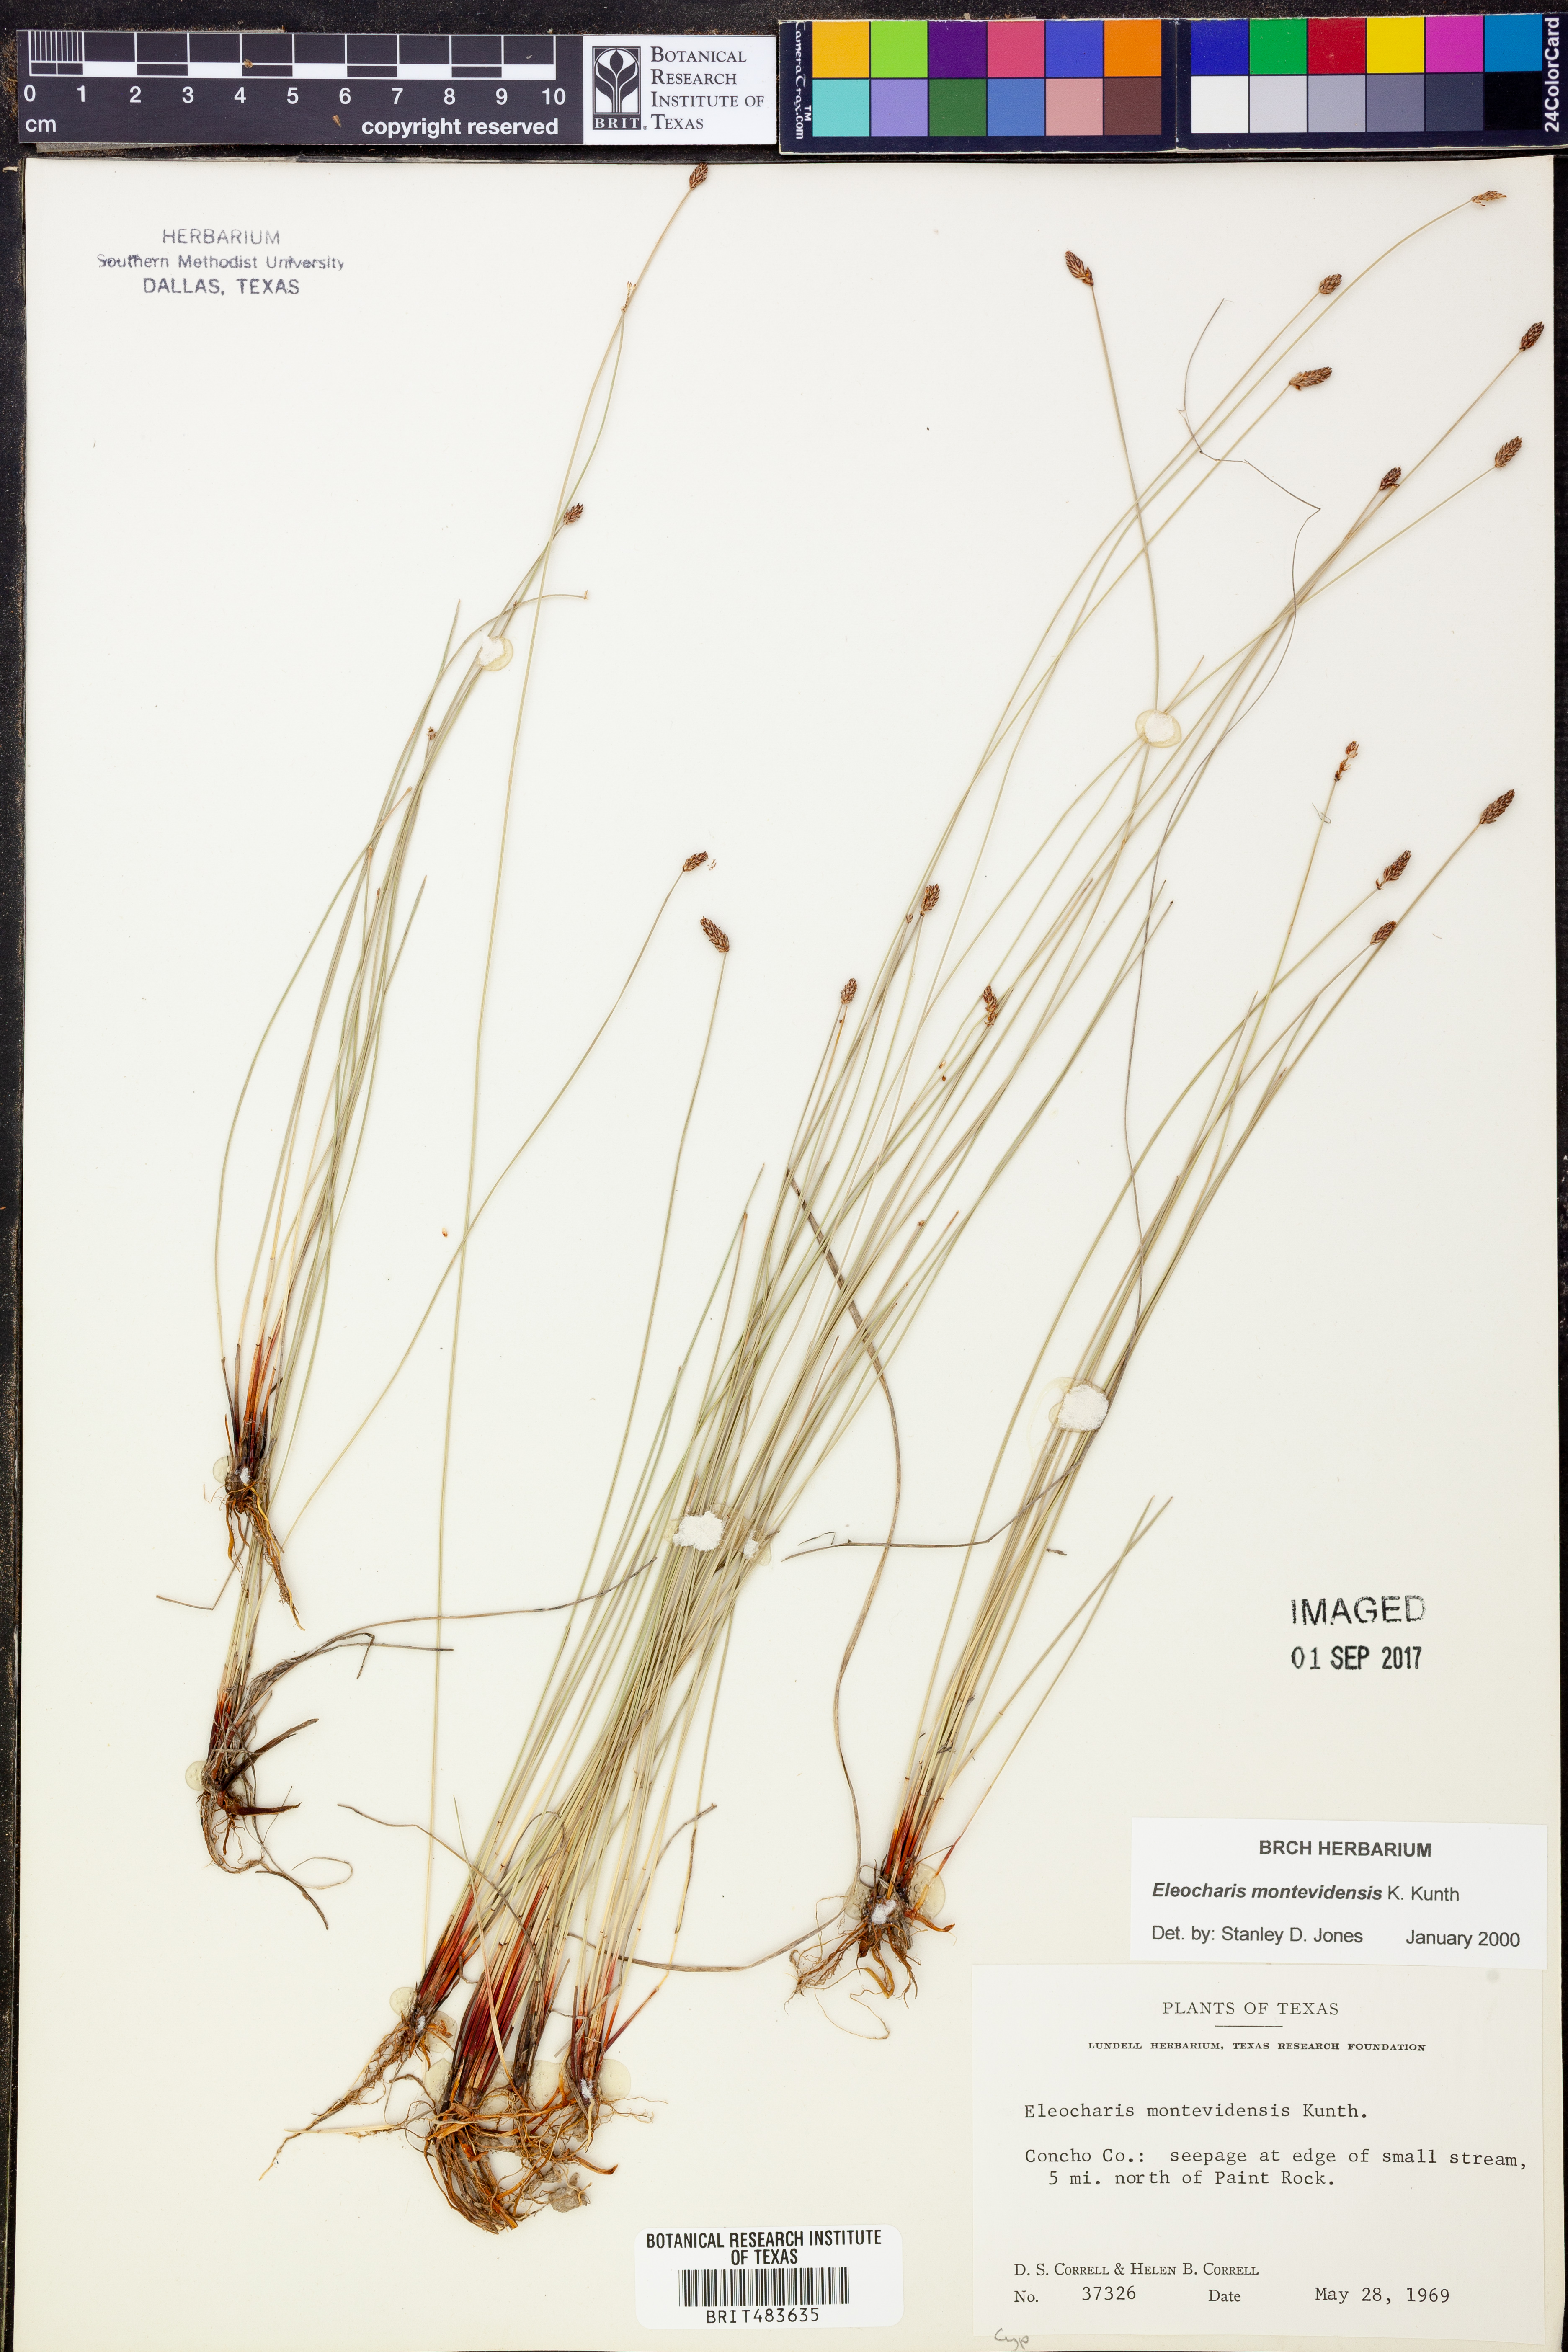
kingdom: Plantae
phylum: Tracheophyta
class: Liliopsida
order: Poales
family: Cyperaceae
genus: Eleocharis
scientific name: Eleocharis montevidensis
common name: Sand spike-rush
